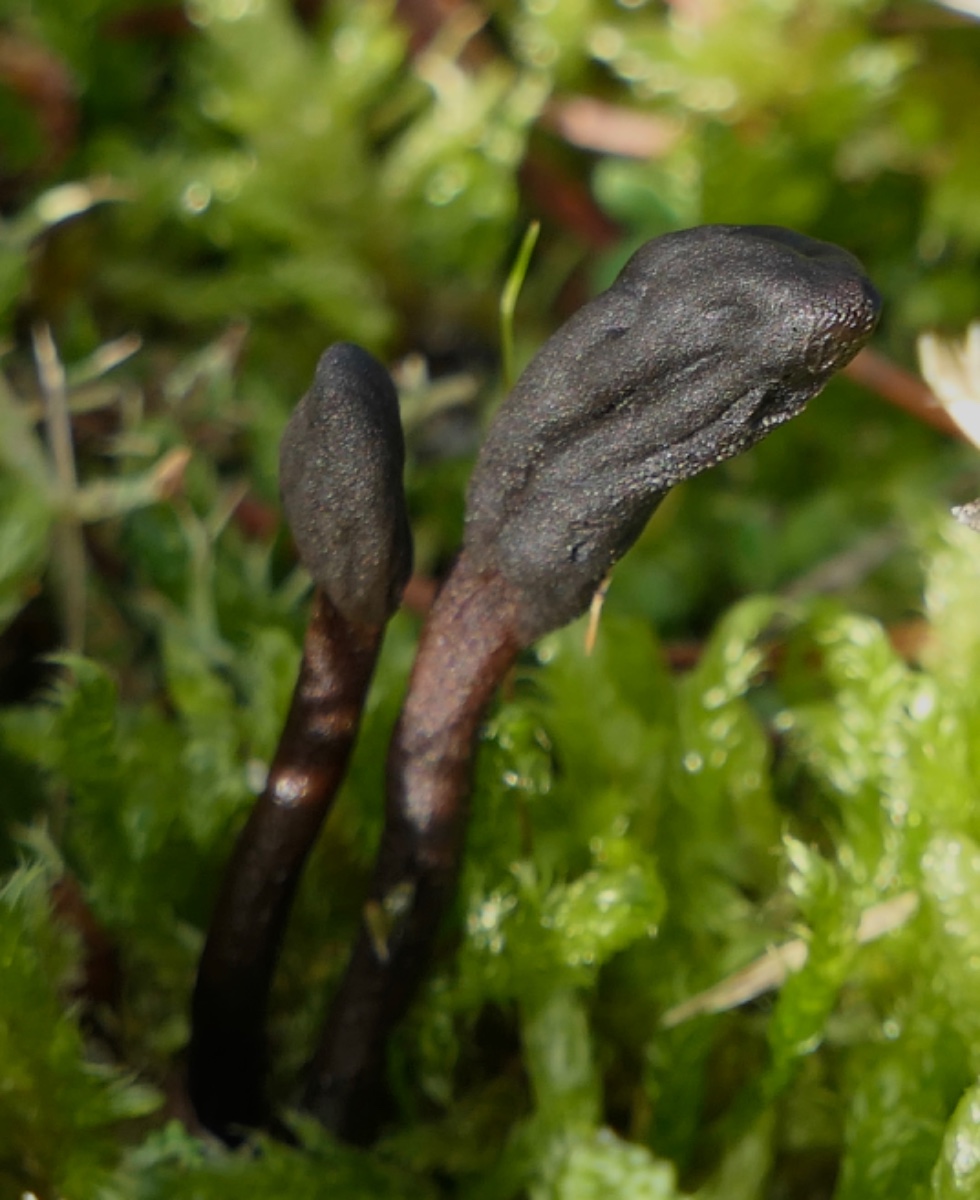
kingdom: Fungi
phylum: Ascomycota
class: Geoglossomycetes
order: Geoglossales
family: Geoglossaceae
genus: Geoglossum
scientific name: Geoglossum
